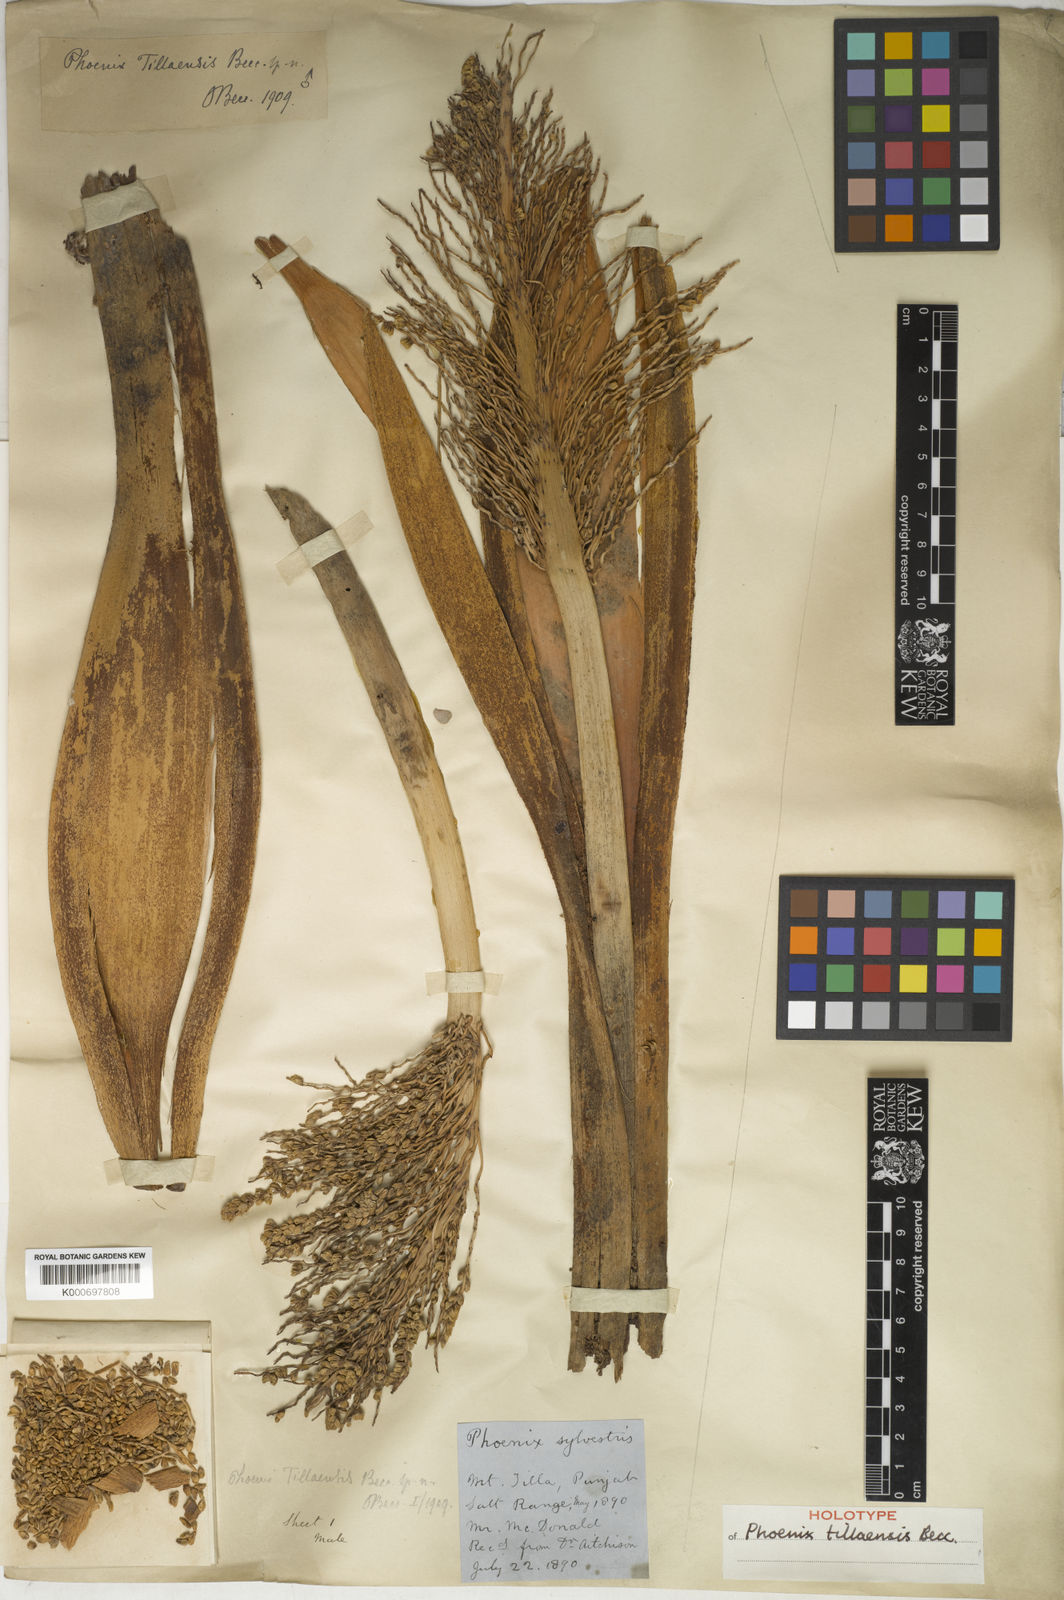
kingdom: Plantae
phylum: Tracheophyta
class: Liliopsida
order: Arecales
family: Arecaceae
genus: Phoenix
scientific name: Phoenix
